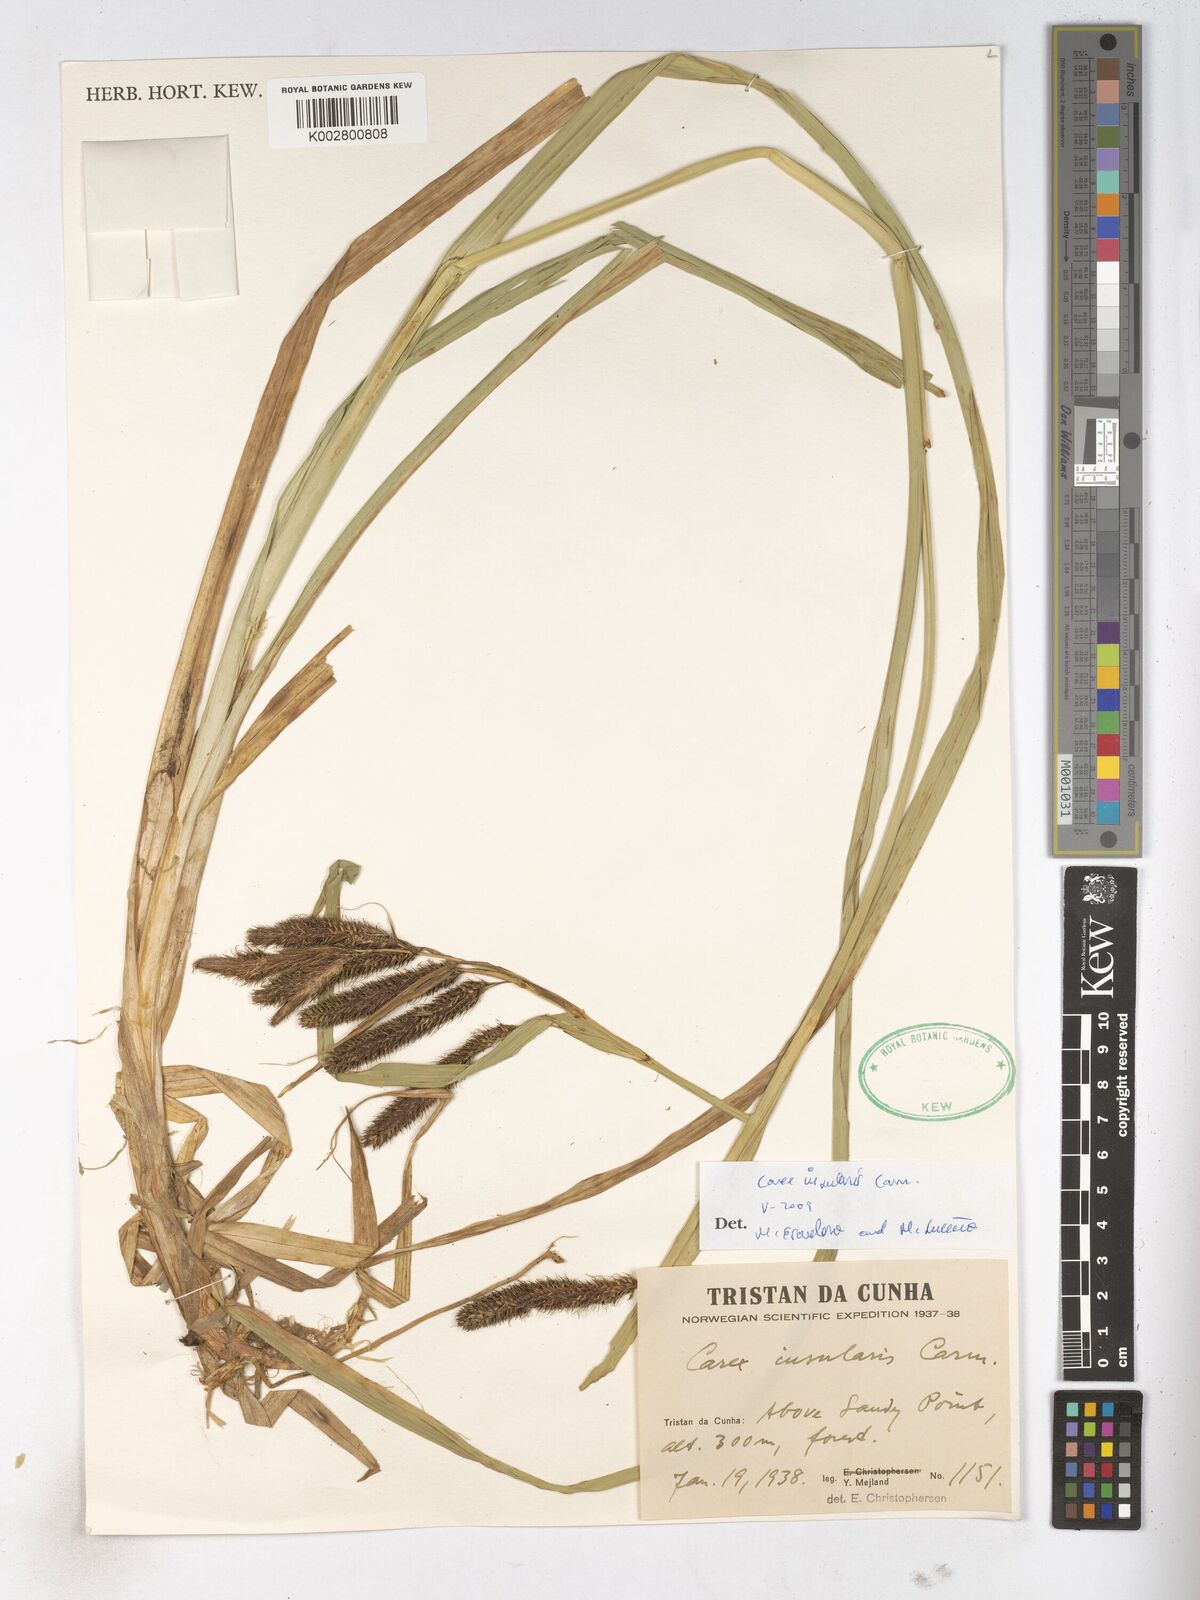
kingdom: Plantae
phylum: Tracheophyta
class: Liliopsida
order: Poales
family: Cyperaceae
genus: Carex
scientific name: Carex insularis
